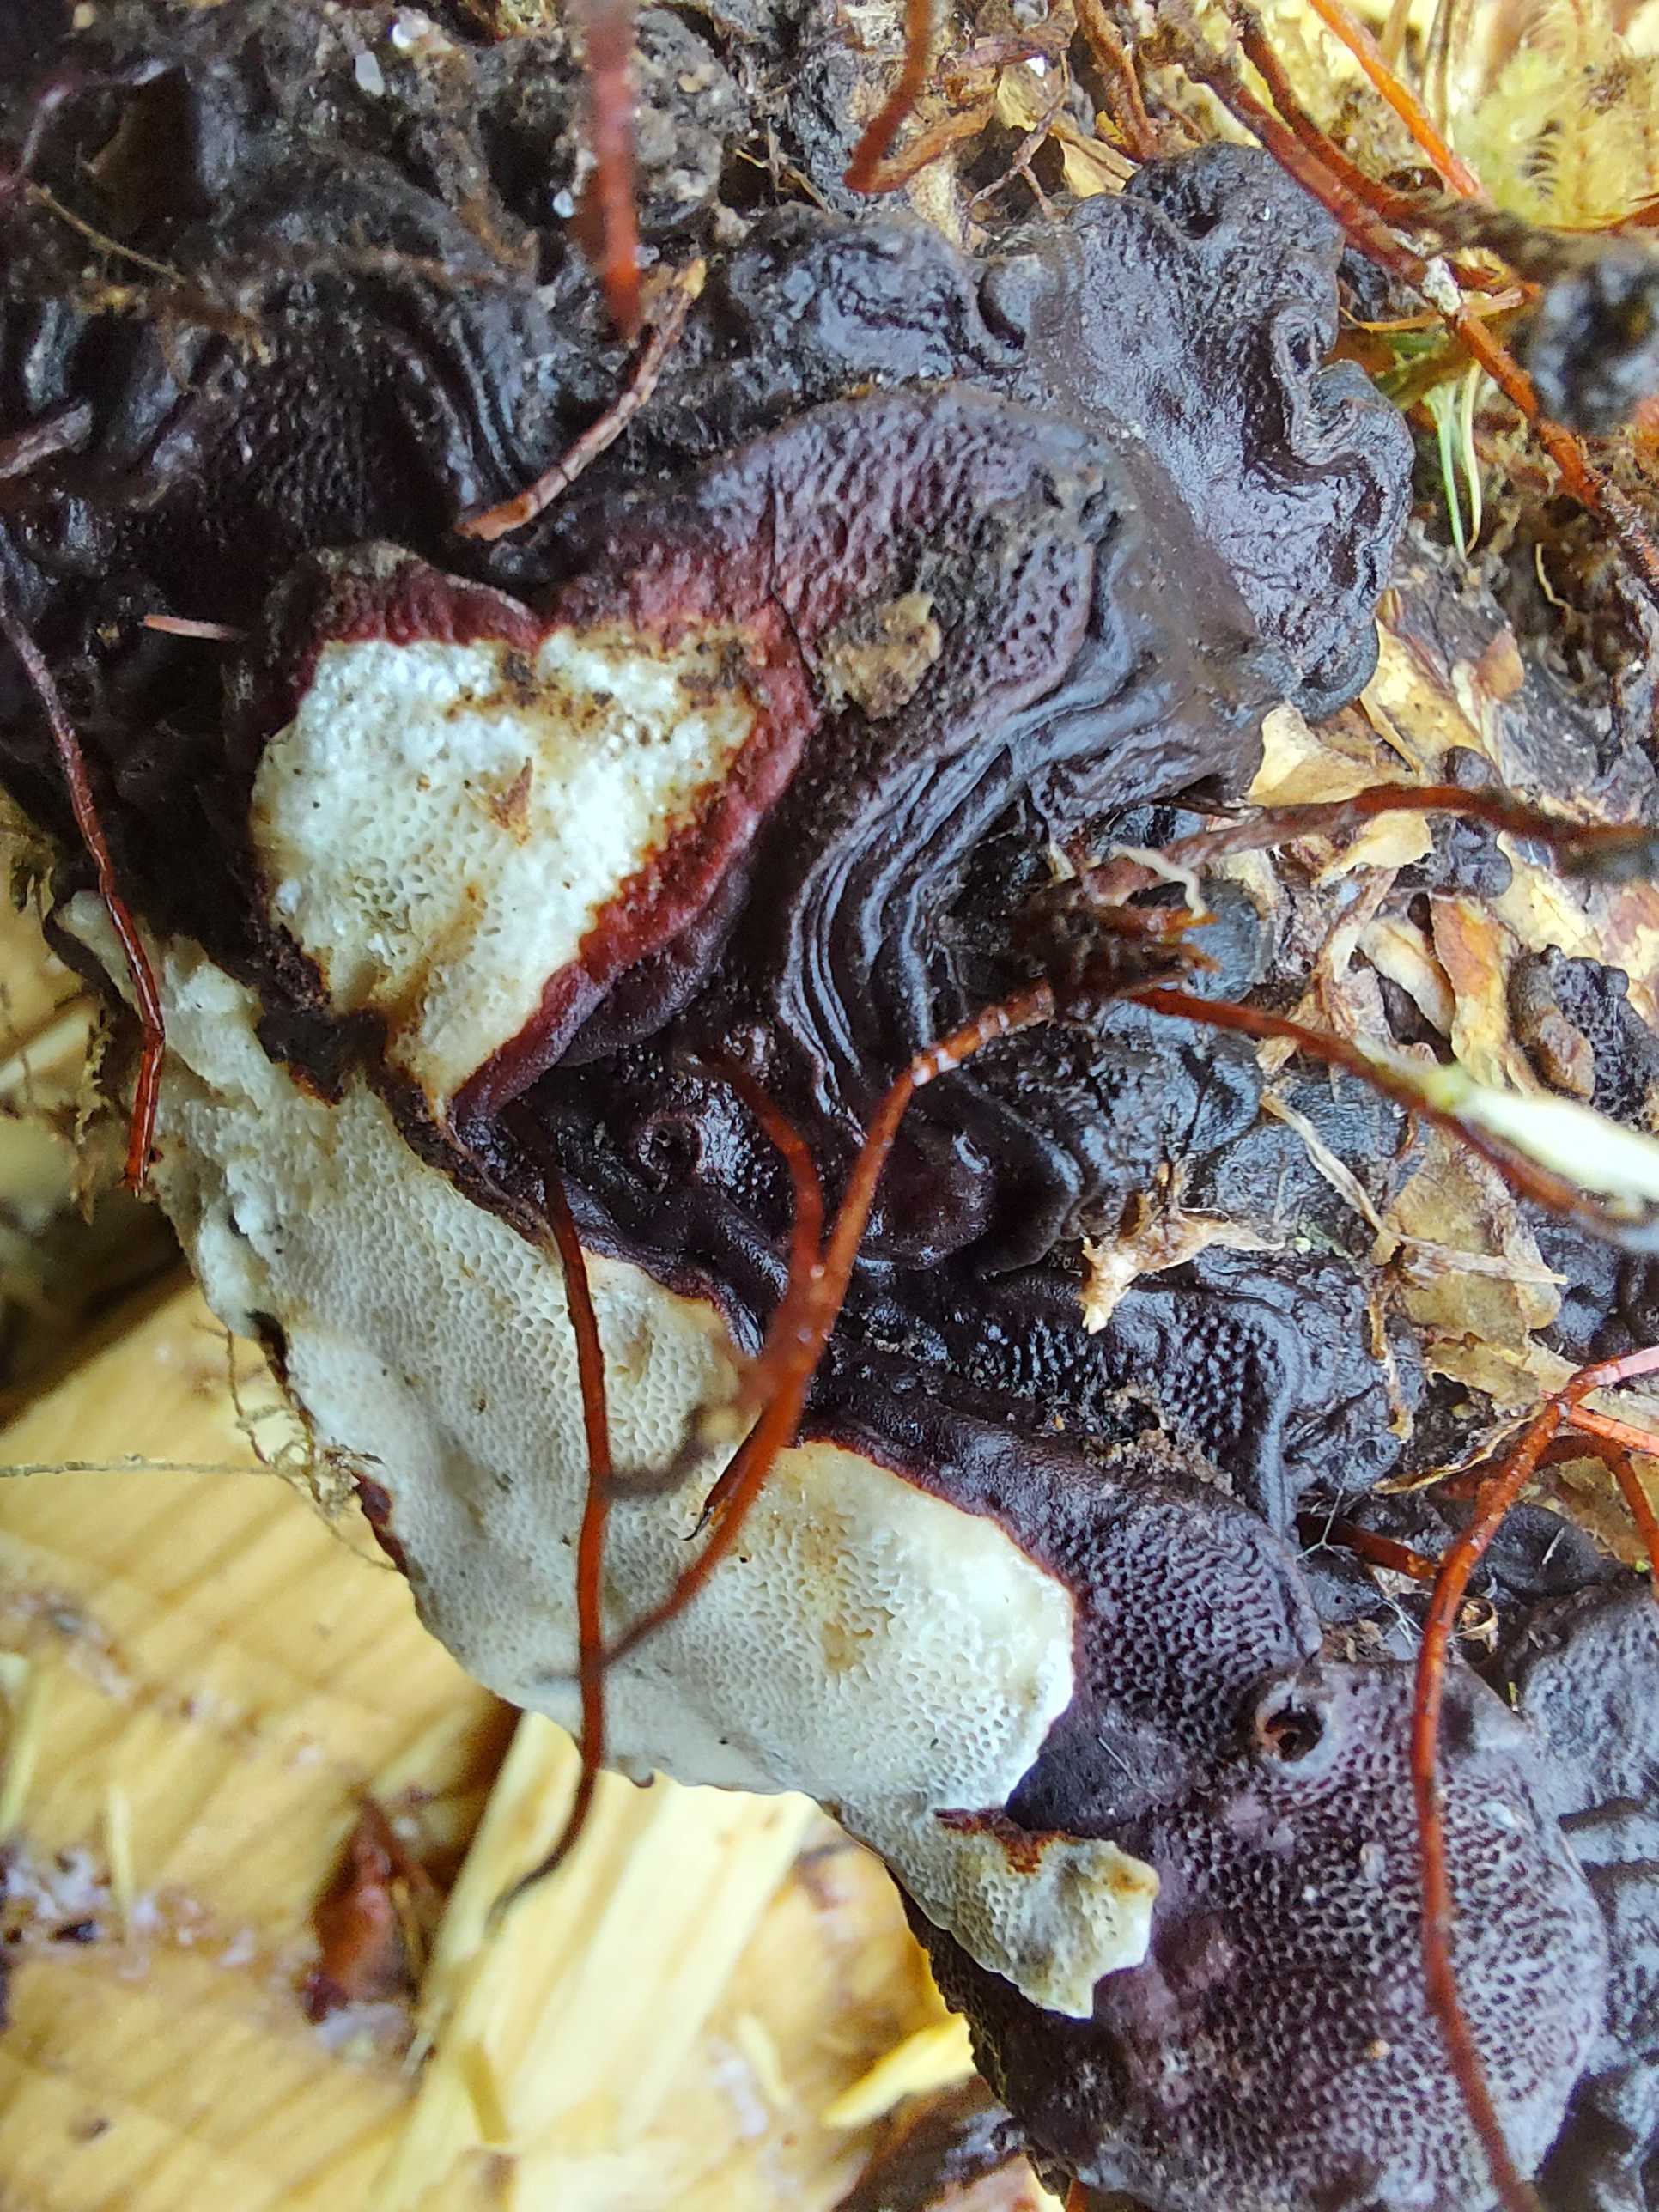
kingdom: Fungi
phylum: Basidiomycota
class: Agaricomycetes
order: Russulales
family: Bondarzewiaceae
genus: Heterobasidion
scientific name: Heterobasidion annosum
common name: almindelig rodfordærver
